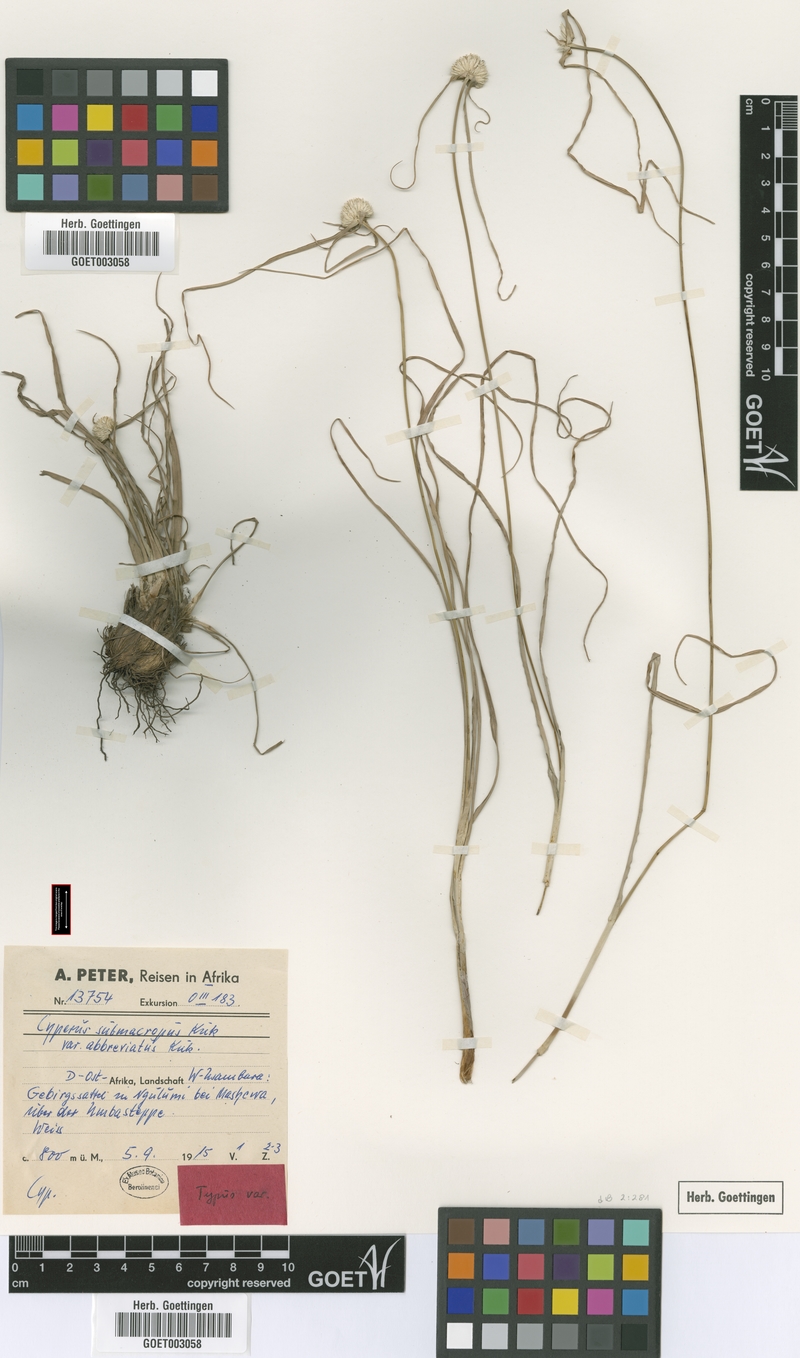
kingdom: Plantae
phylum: Tracheophyta
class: Liliopsida
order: Poales
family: Cyperaceae
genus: Cyperus
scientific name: Cyperus mollipes
